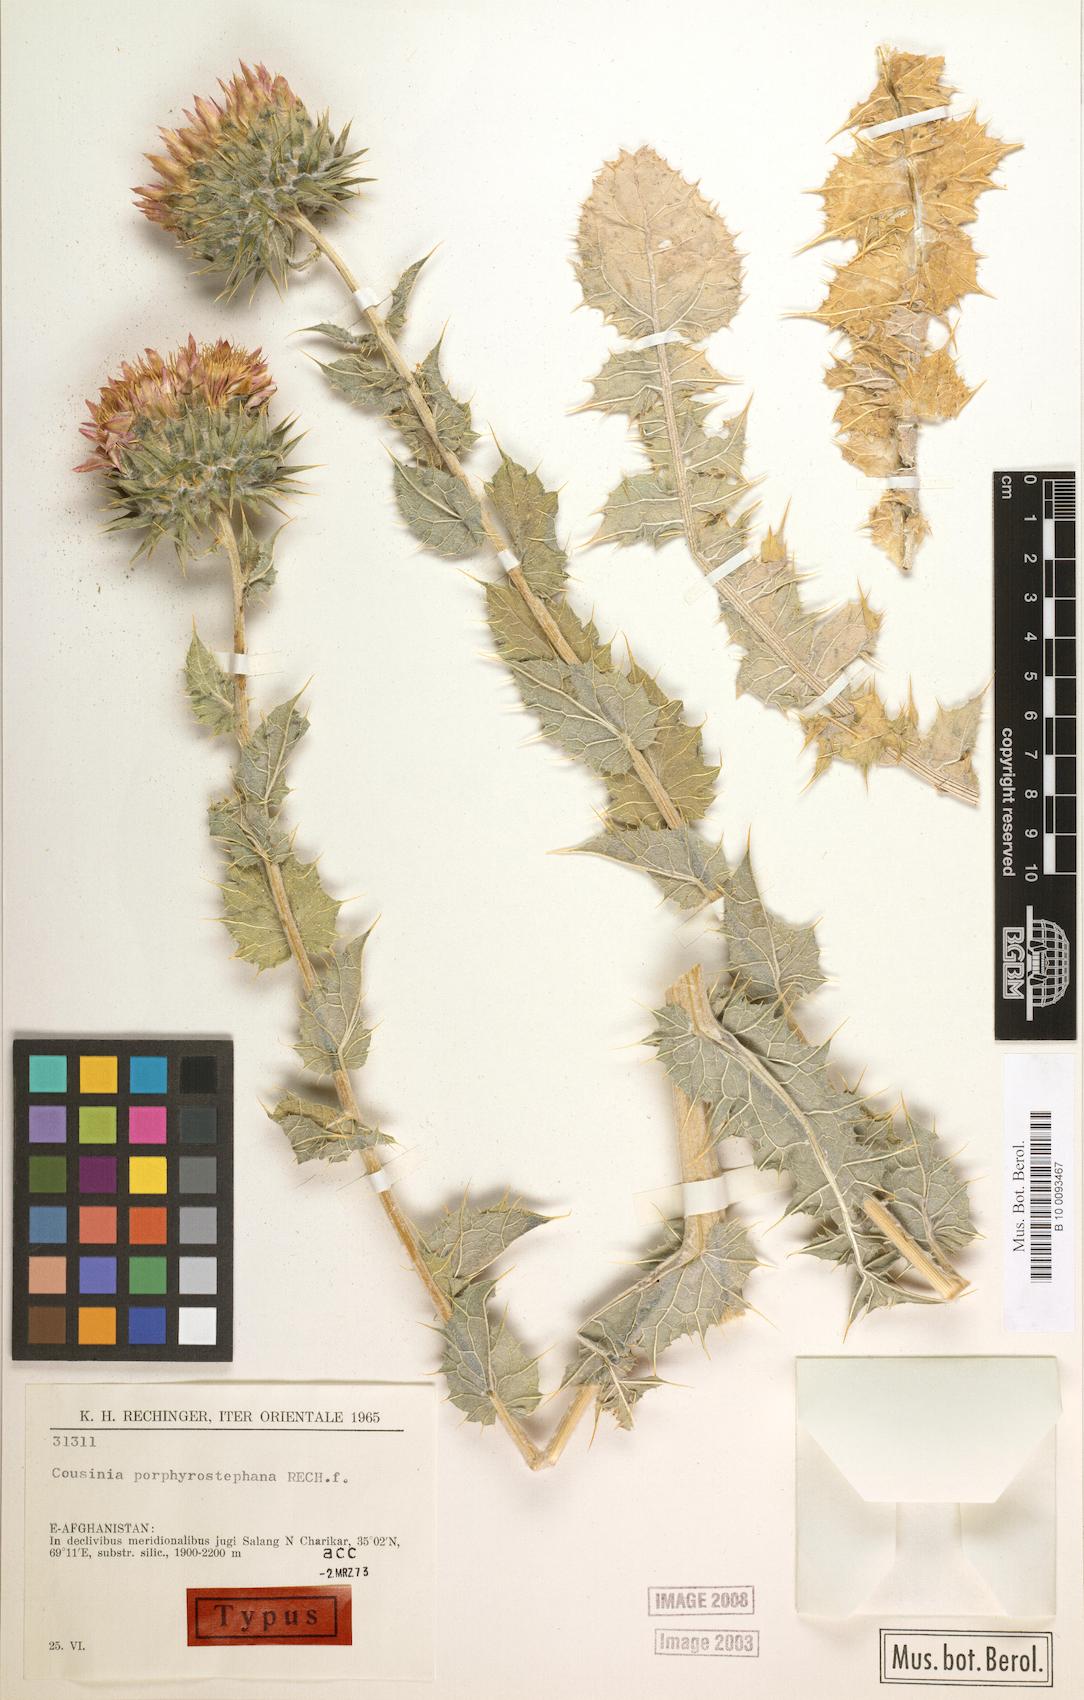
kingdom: Plantae
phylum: Tracheophyta
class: Magnoliopsida
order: Asterales
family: Asteraceae
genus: Cousinia
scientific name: Cousinia porphyrostephana
